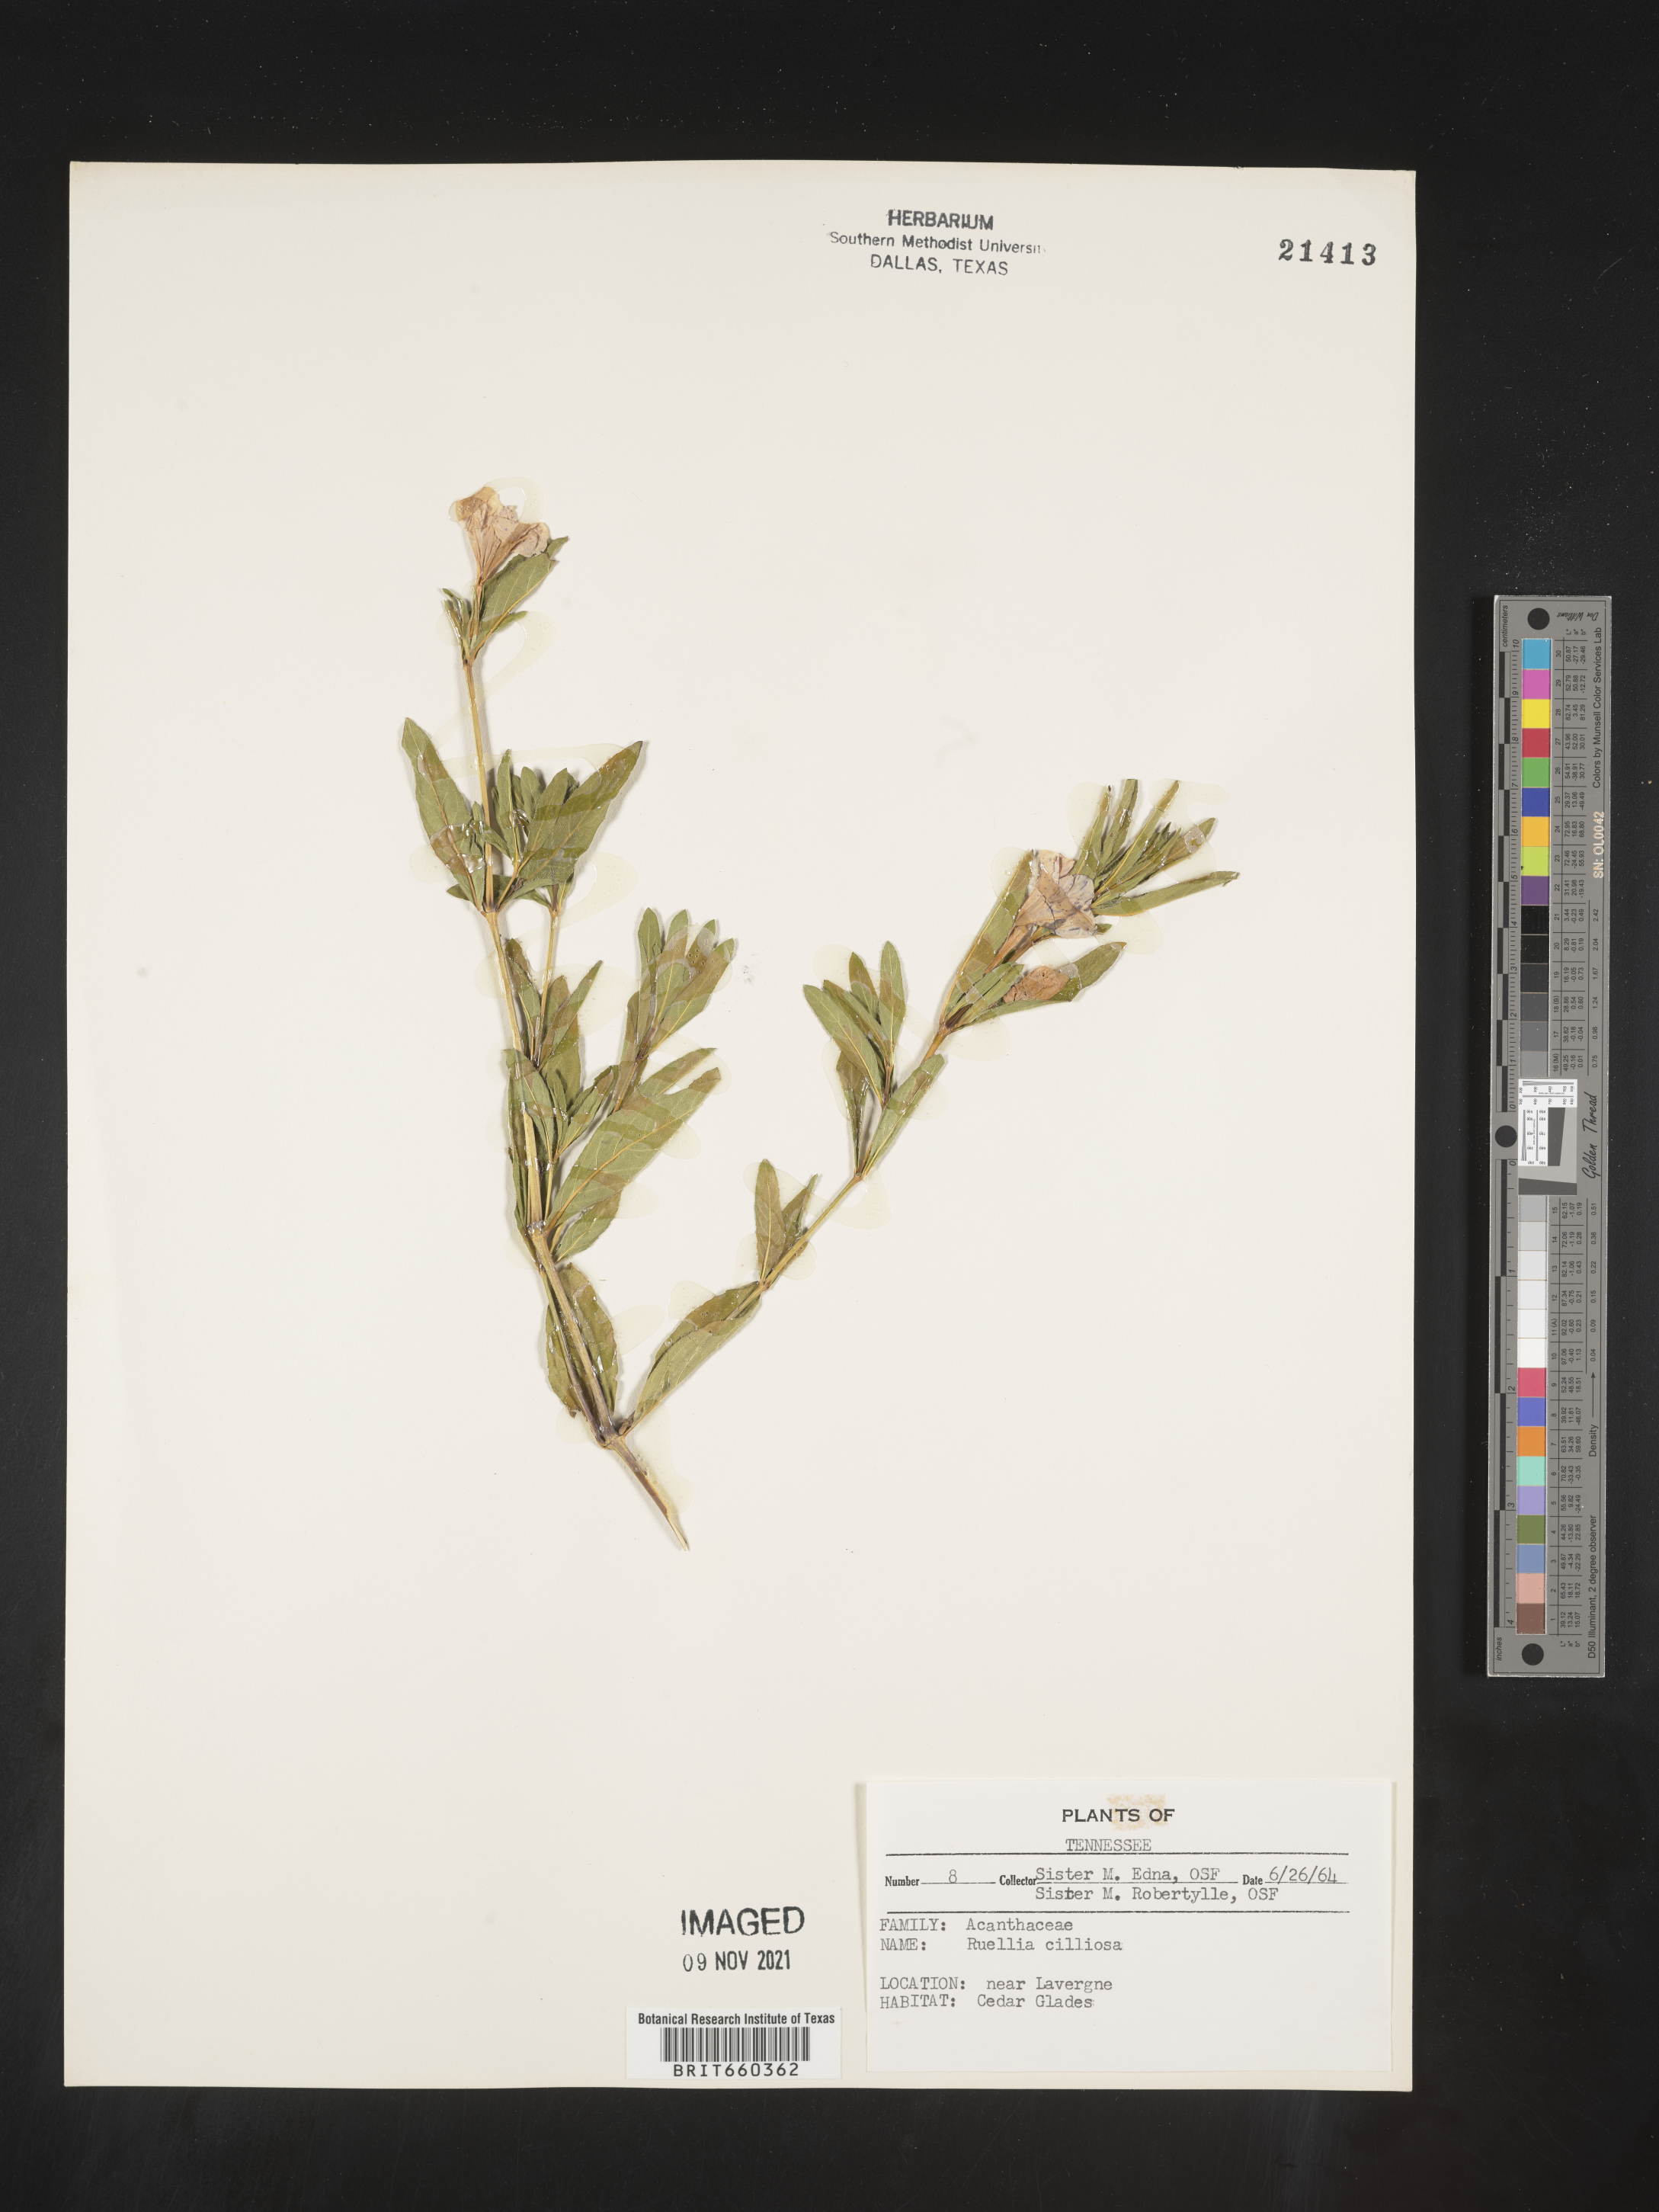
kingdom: Plantae
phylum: Tracheophyta
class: Magnoliopsida
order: Lamiales
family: Acanthaceae
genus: Ruellia
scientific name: Ruellia caroliniensis
